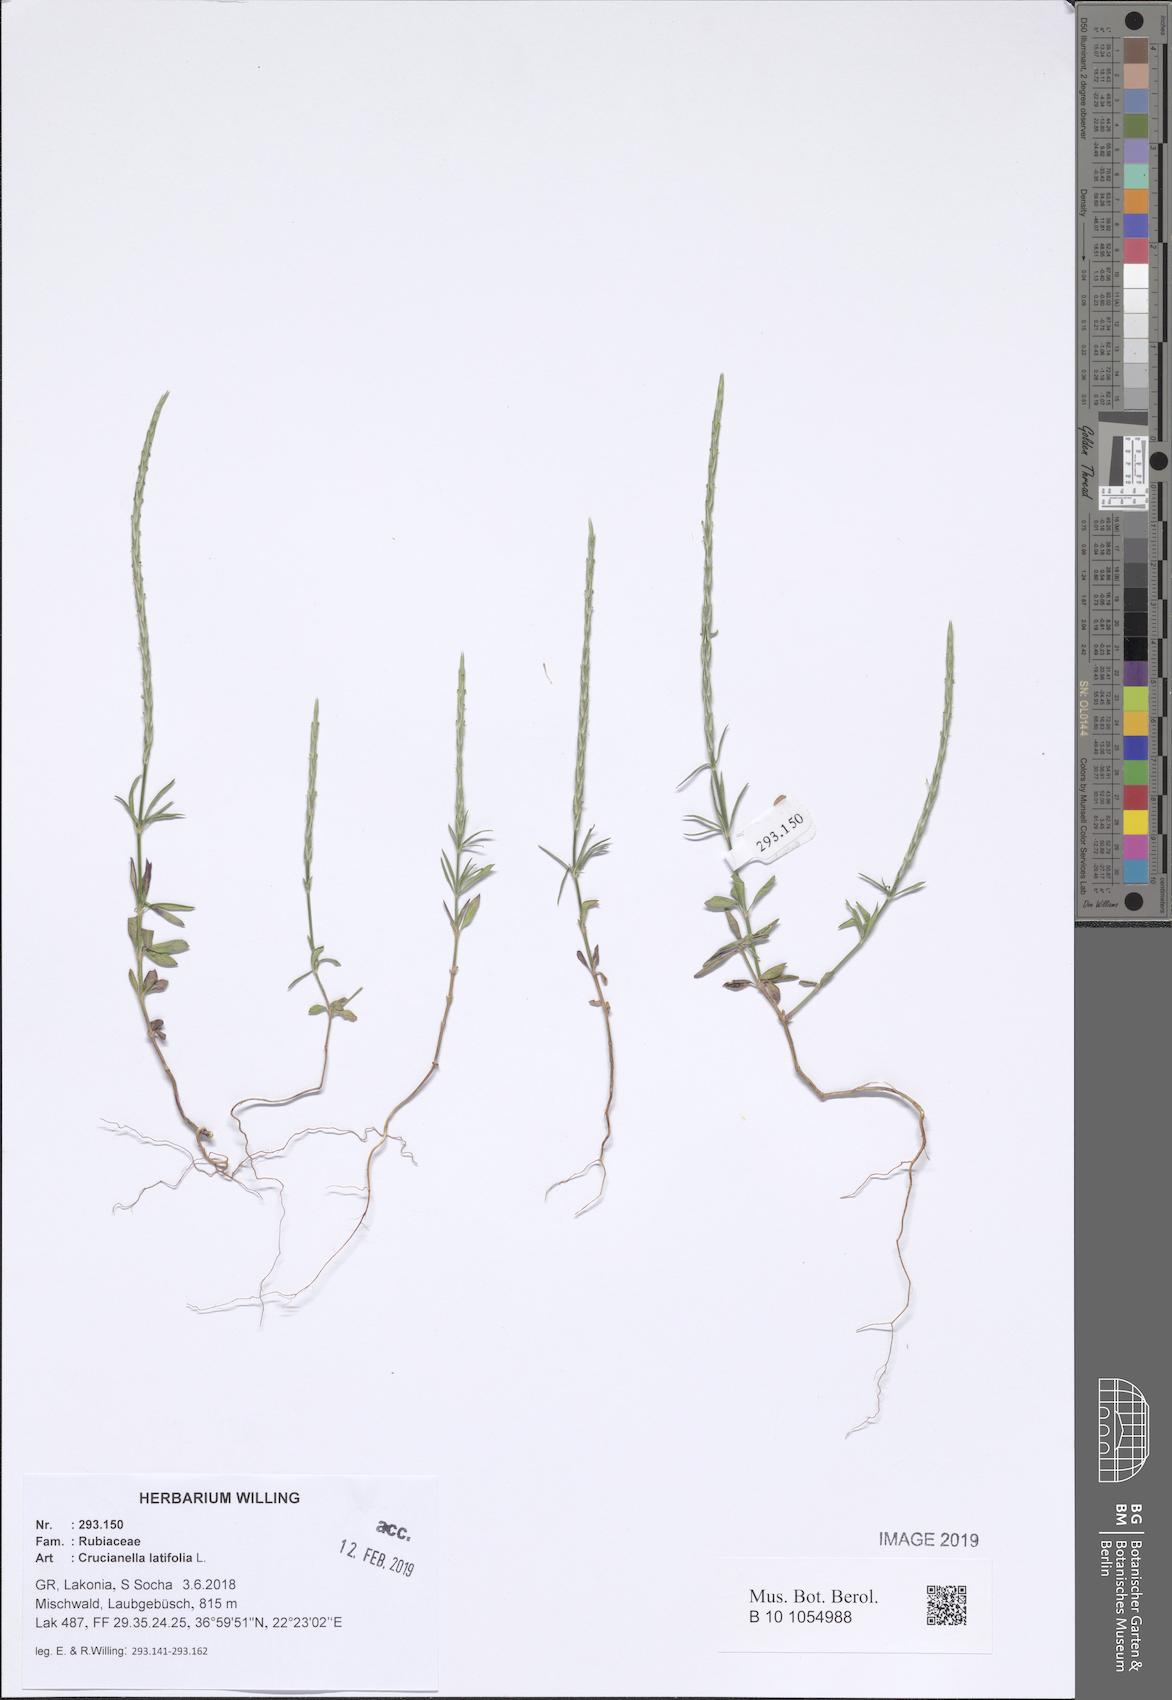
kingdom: Plantae
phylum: Tracheophyta
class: Magnoliopsida
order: Gentianales
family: Rubiaceae
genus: Crucianella
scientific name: Crucianella latifolia
